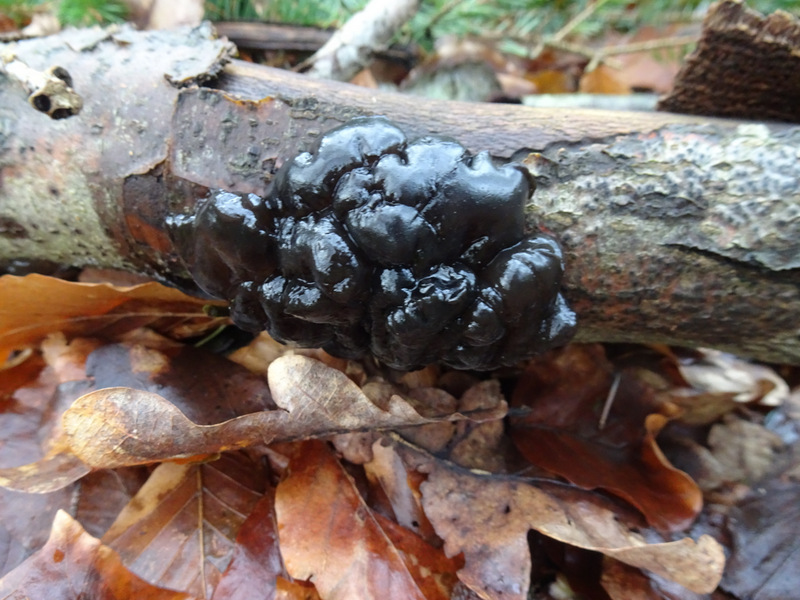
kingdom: Fungi
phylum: Basidiomycota
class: Agaricomycetes
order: Auriculariales
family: Auriculariaceae
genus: Exidia
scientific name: Exidia nigricans
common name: almindelig bævretop
